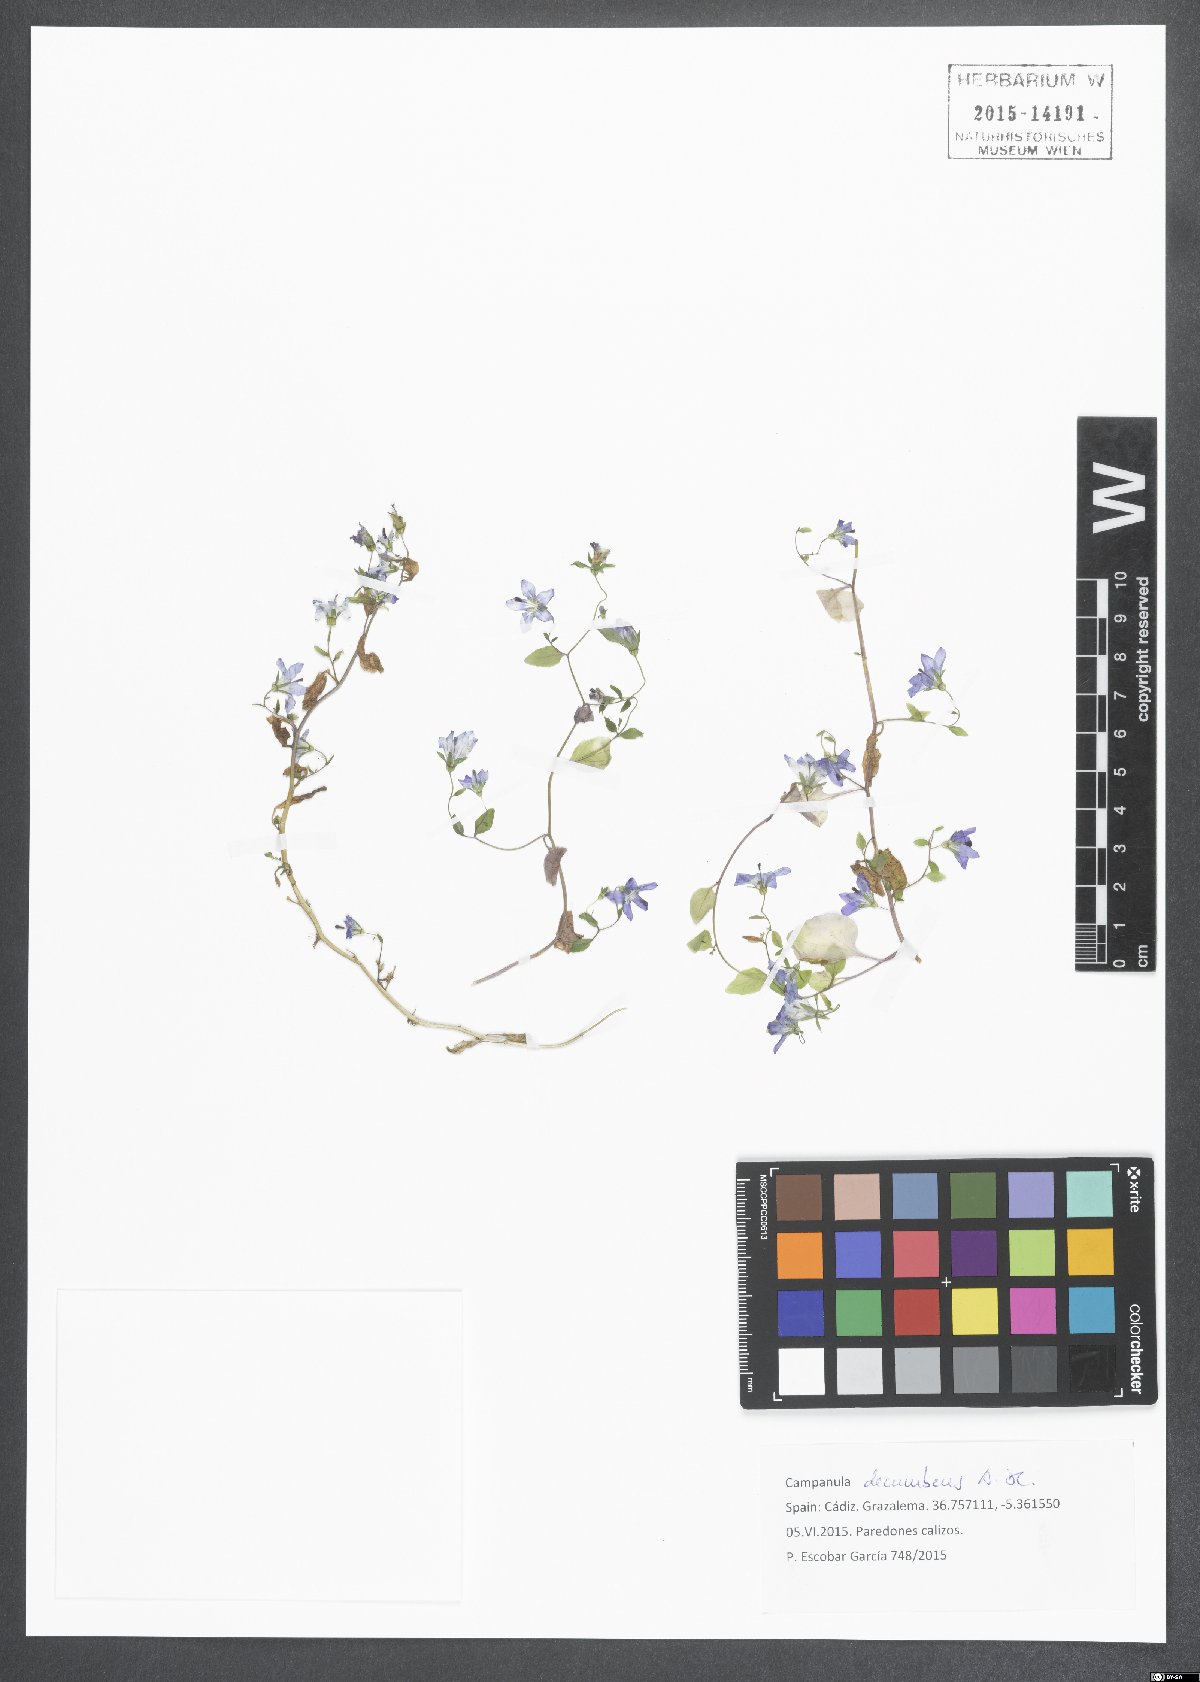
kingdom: Plantae
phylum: Tracheophyta
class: Magnoliopsida
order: Asterales
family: Campanulaceae
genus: Campanula
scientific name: Campanula decumbens
